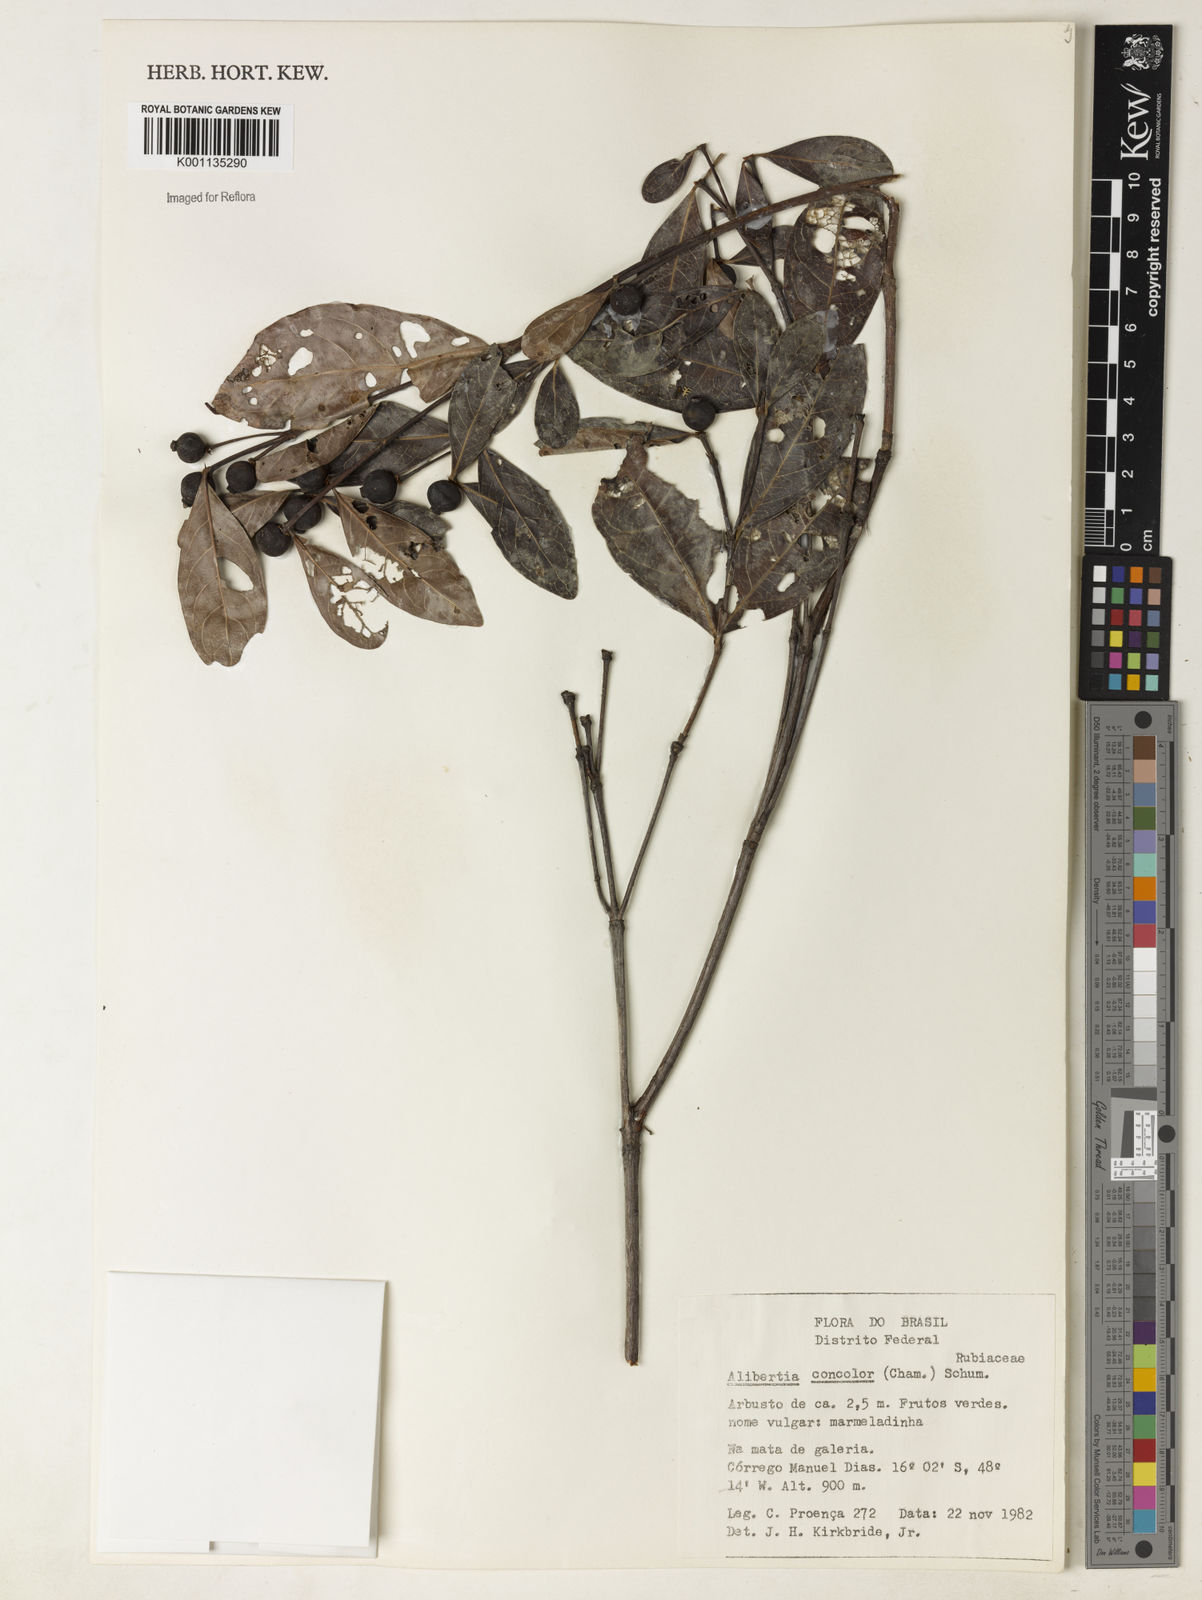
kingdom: Plantae
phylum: Tracheophyta
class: Magnoliopsida
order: Gentianales
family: Rubiaceae
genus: Cordiera
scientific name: Cordiera concolor
